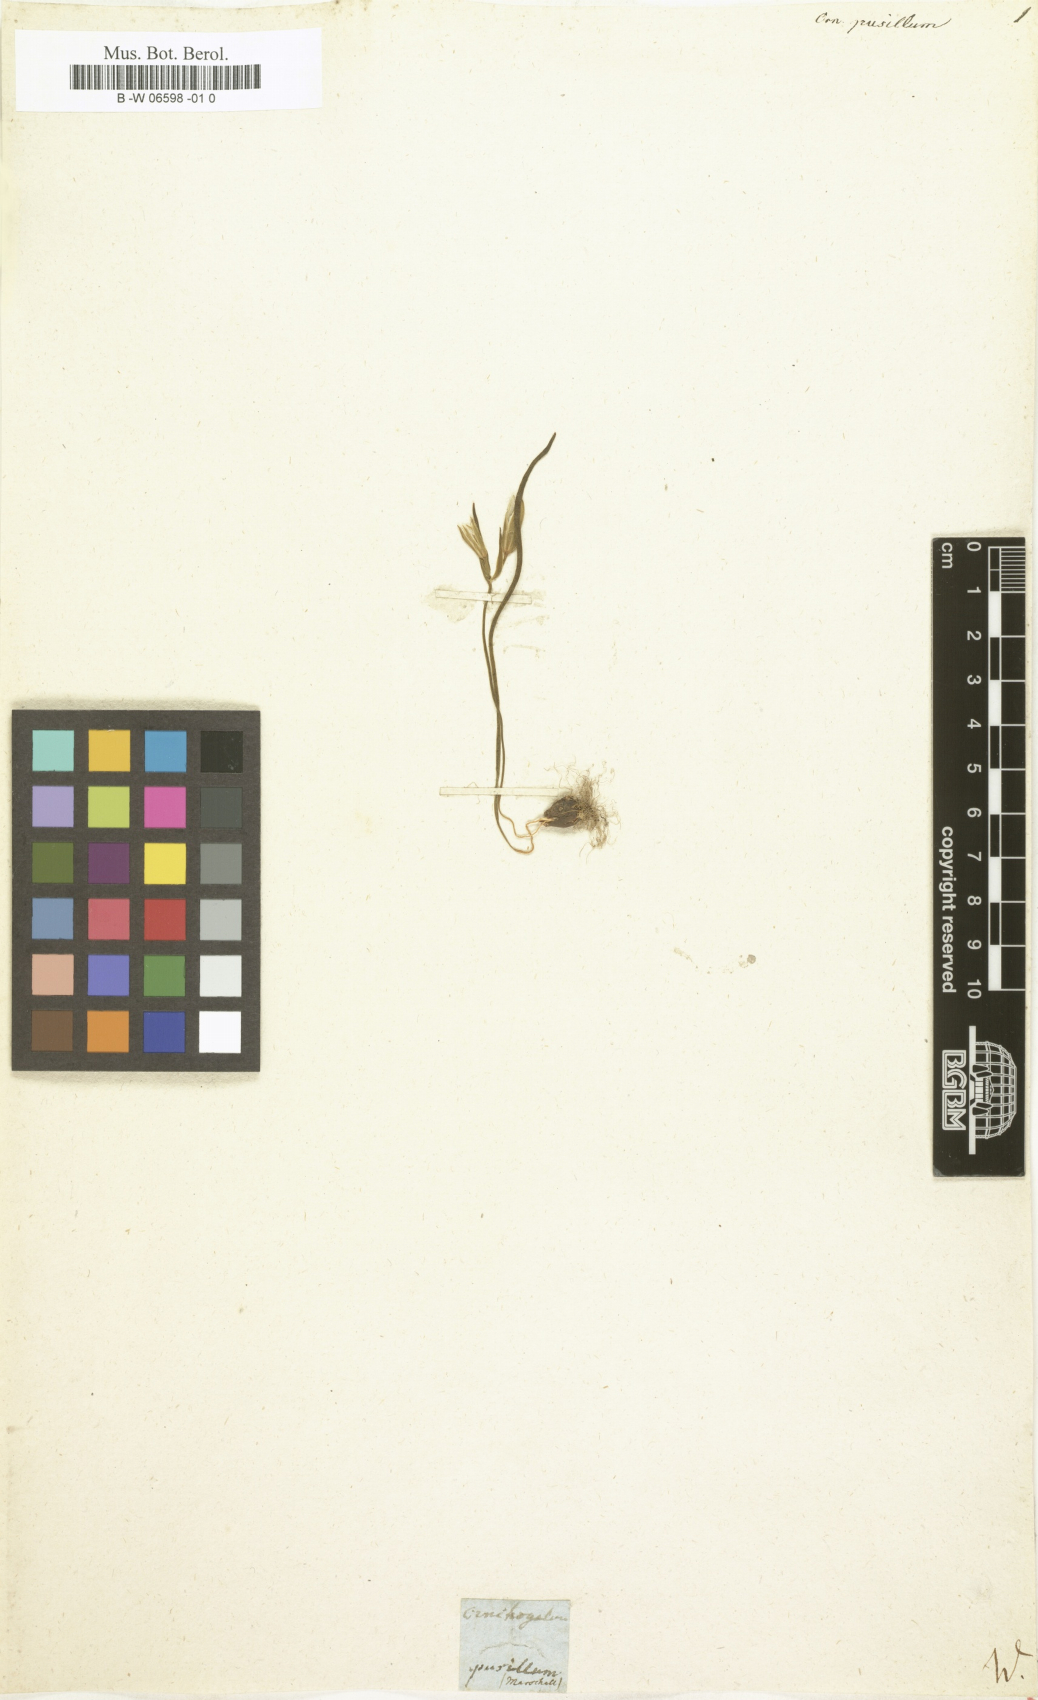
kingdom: Plantae
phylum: Tracheophyta
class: Liliopsida
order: Liliales
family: Liliaceae
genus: Gagea
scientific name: Gagea pusilla
